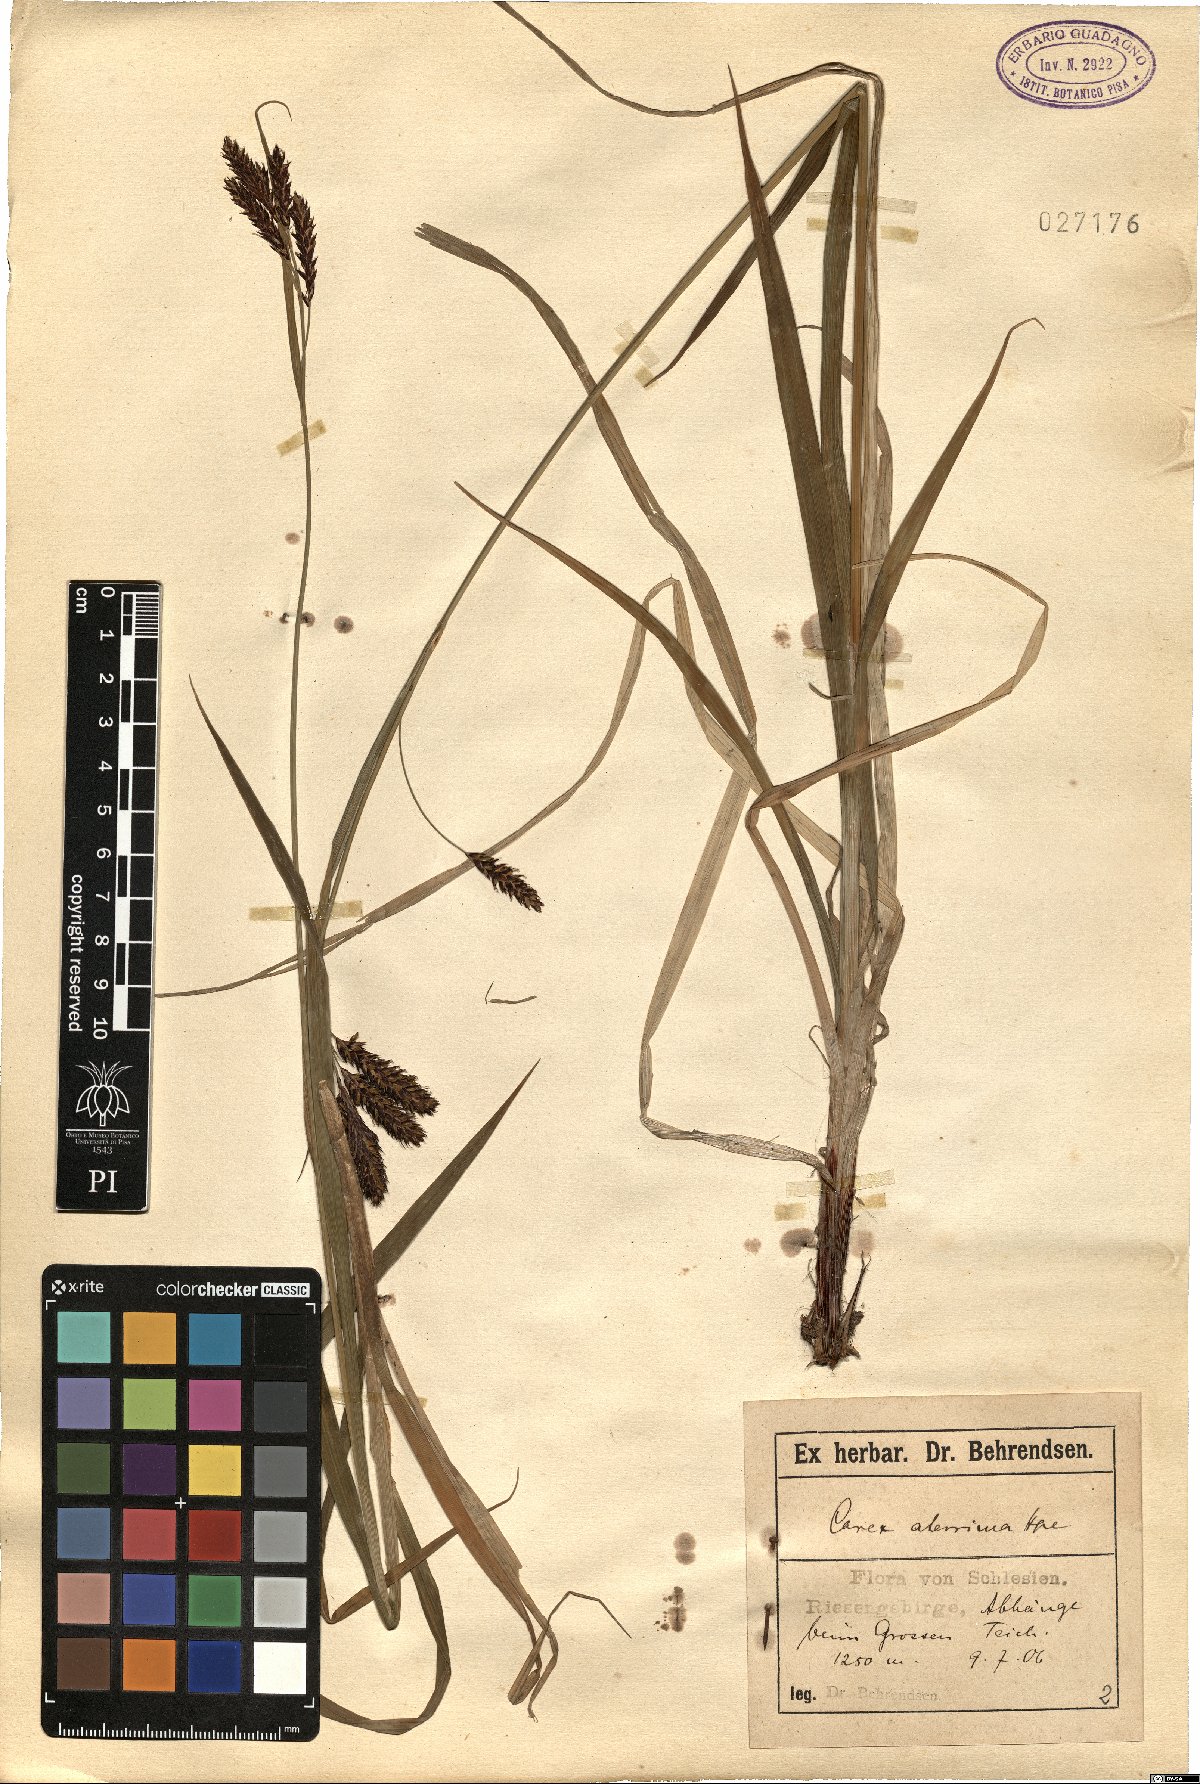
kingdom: Plantae
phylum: Tracheophyta
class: Liliopsida
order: Poales
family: Cyperaceae
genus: Carex
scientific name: Carex aterrima
